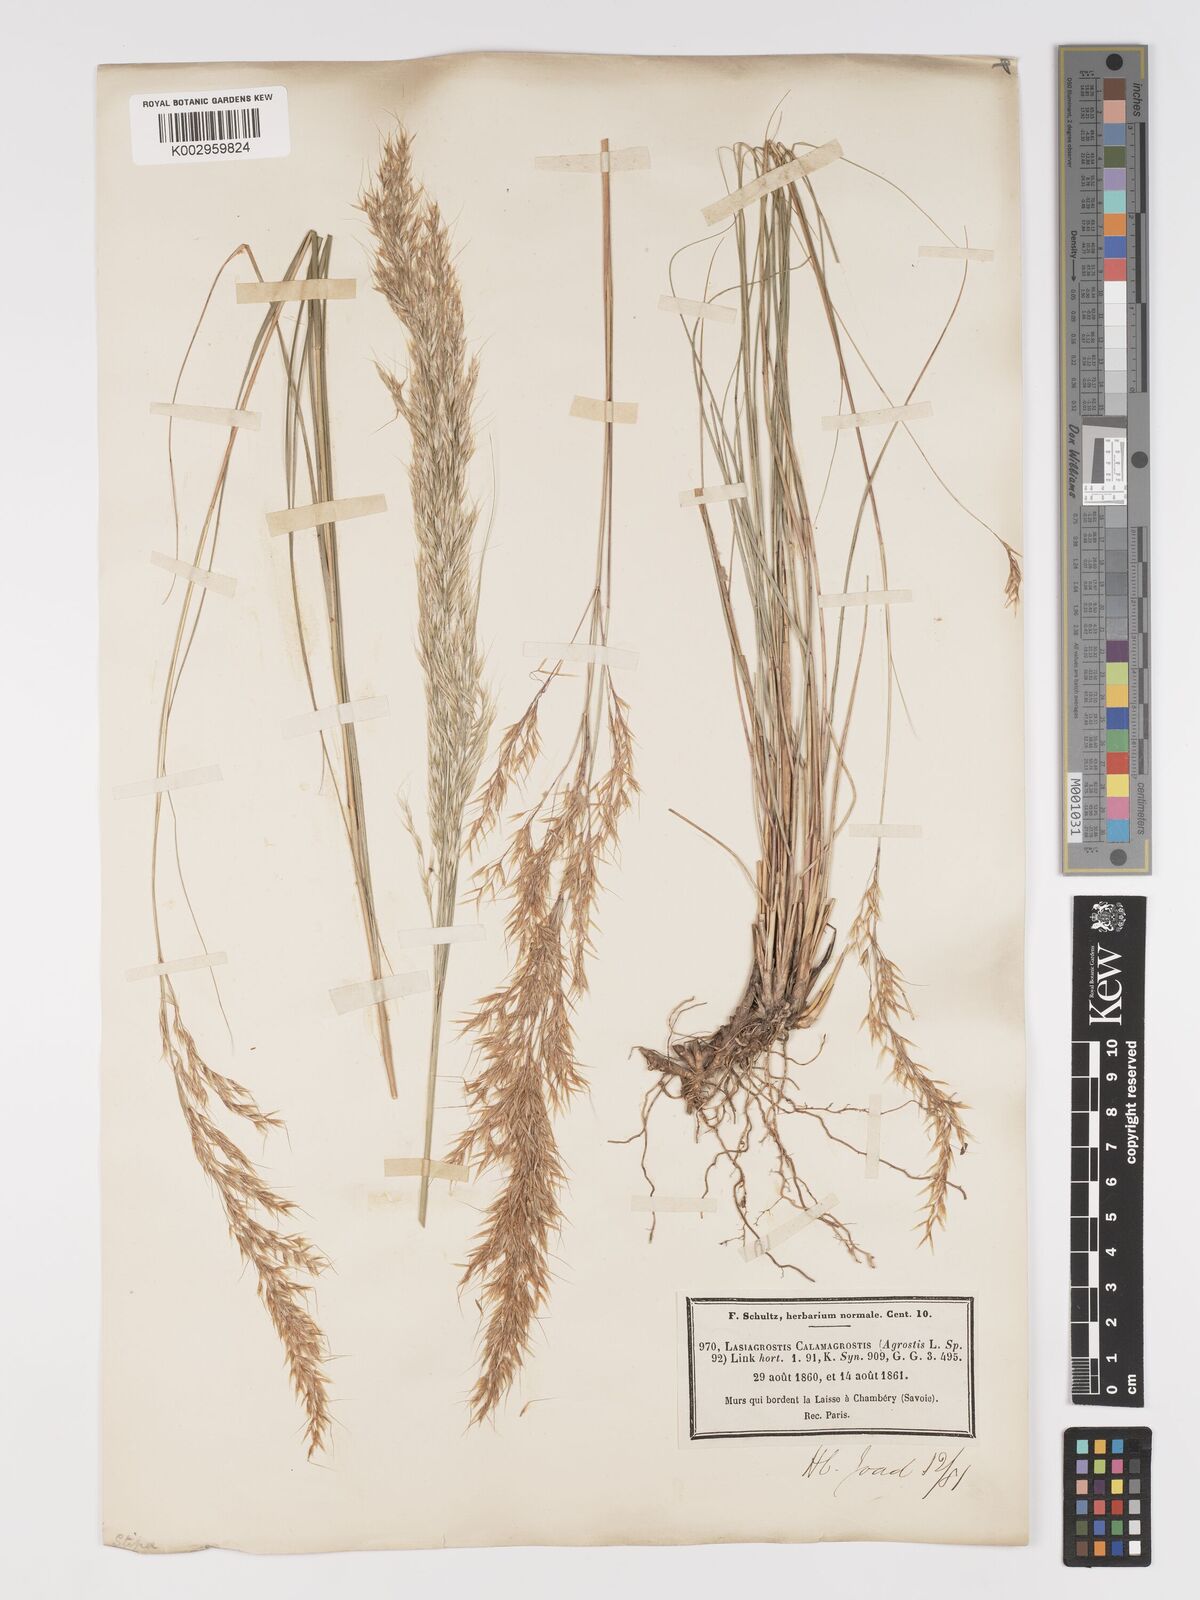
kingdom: Plantae
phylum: Tracheophyta
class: Liliopsida
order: Poales
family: Poaceae
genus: Achnatherum
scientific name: Achnatherum calamagrostis
